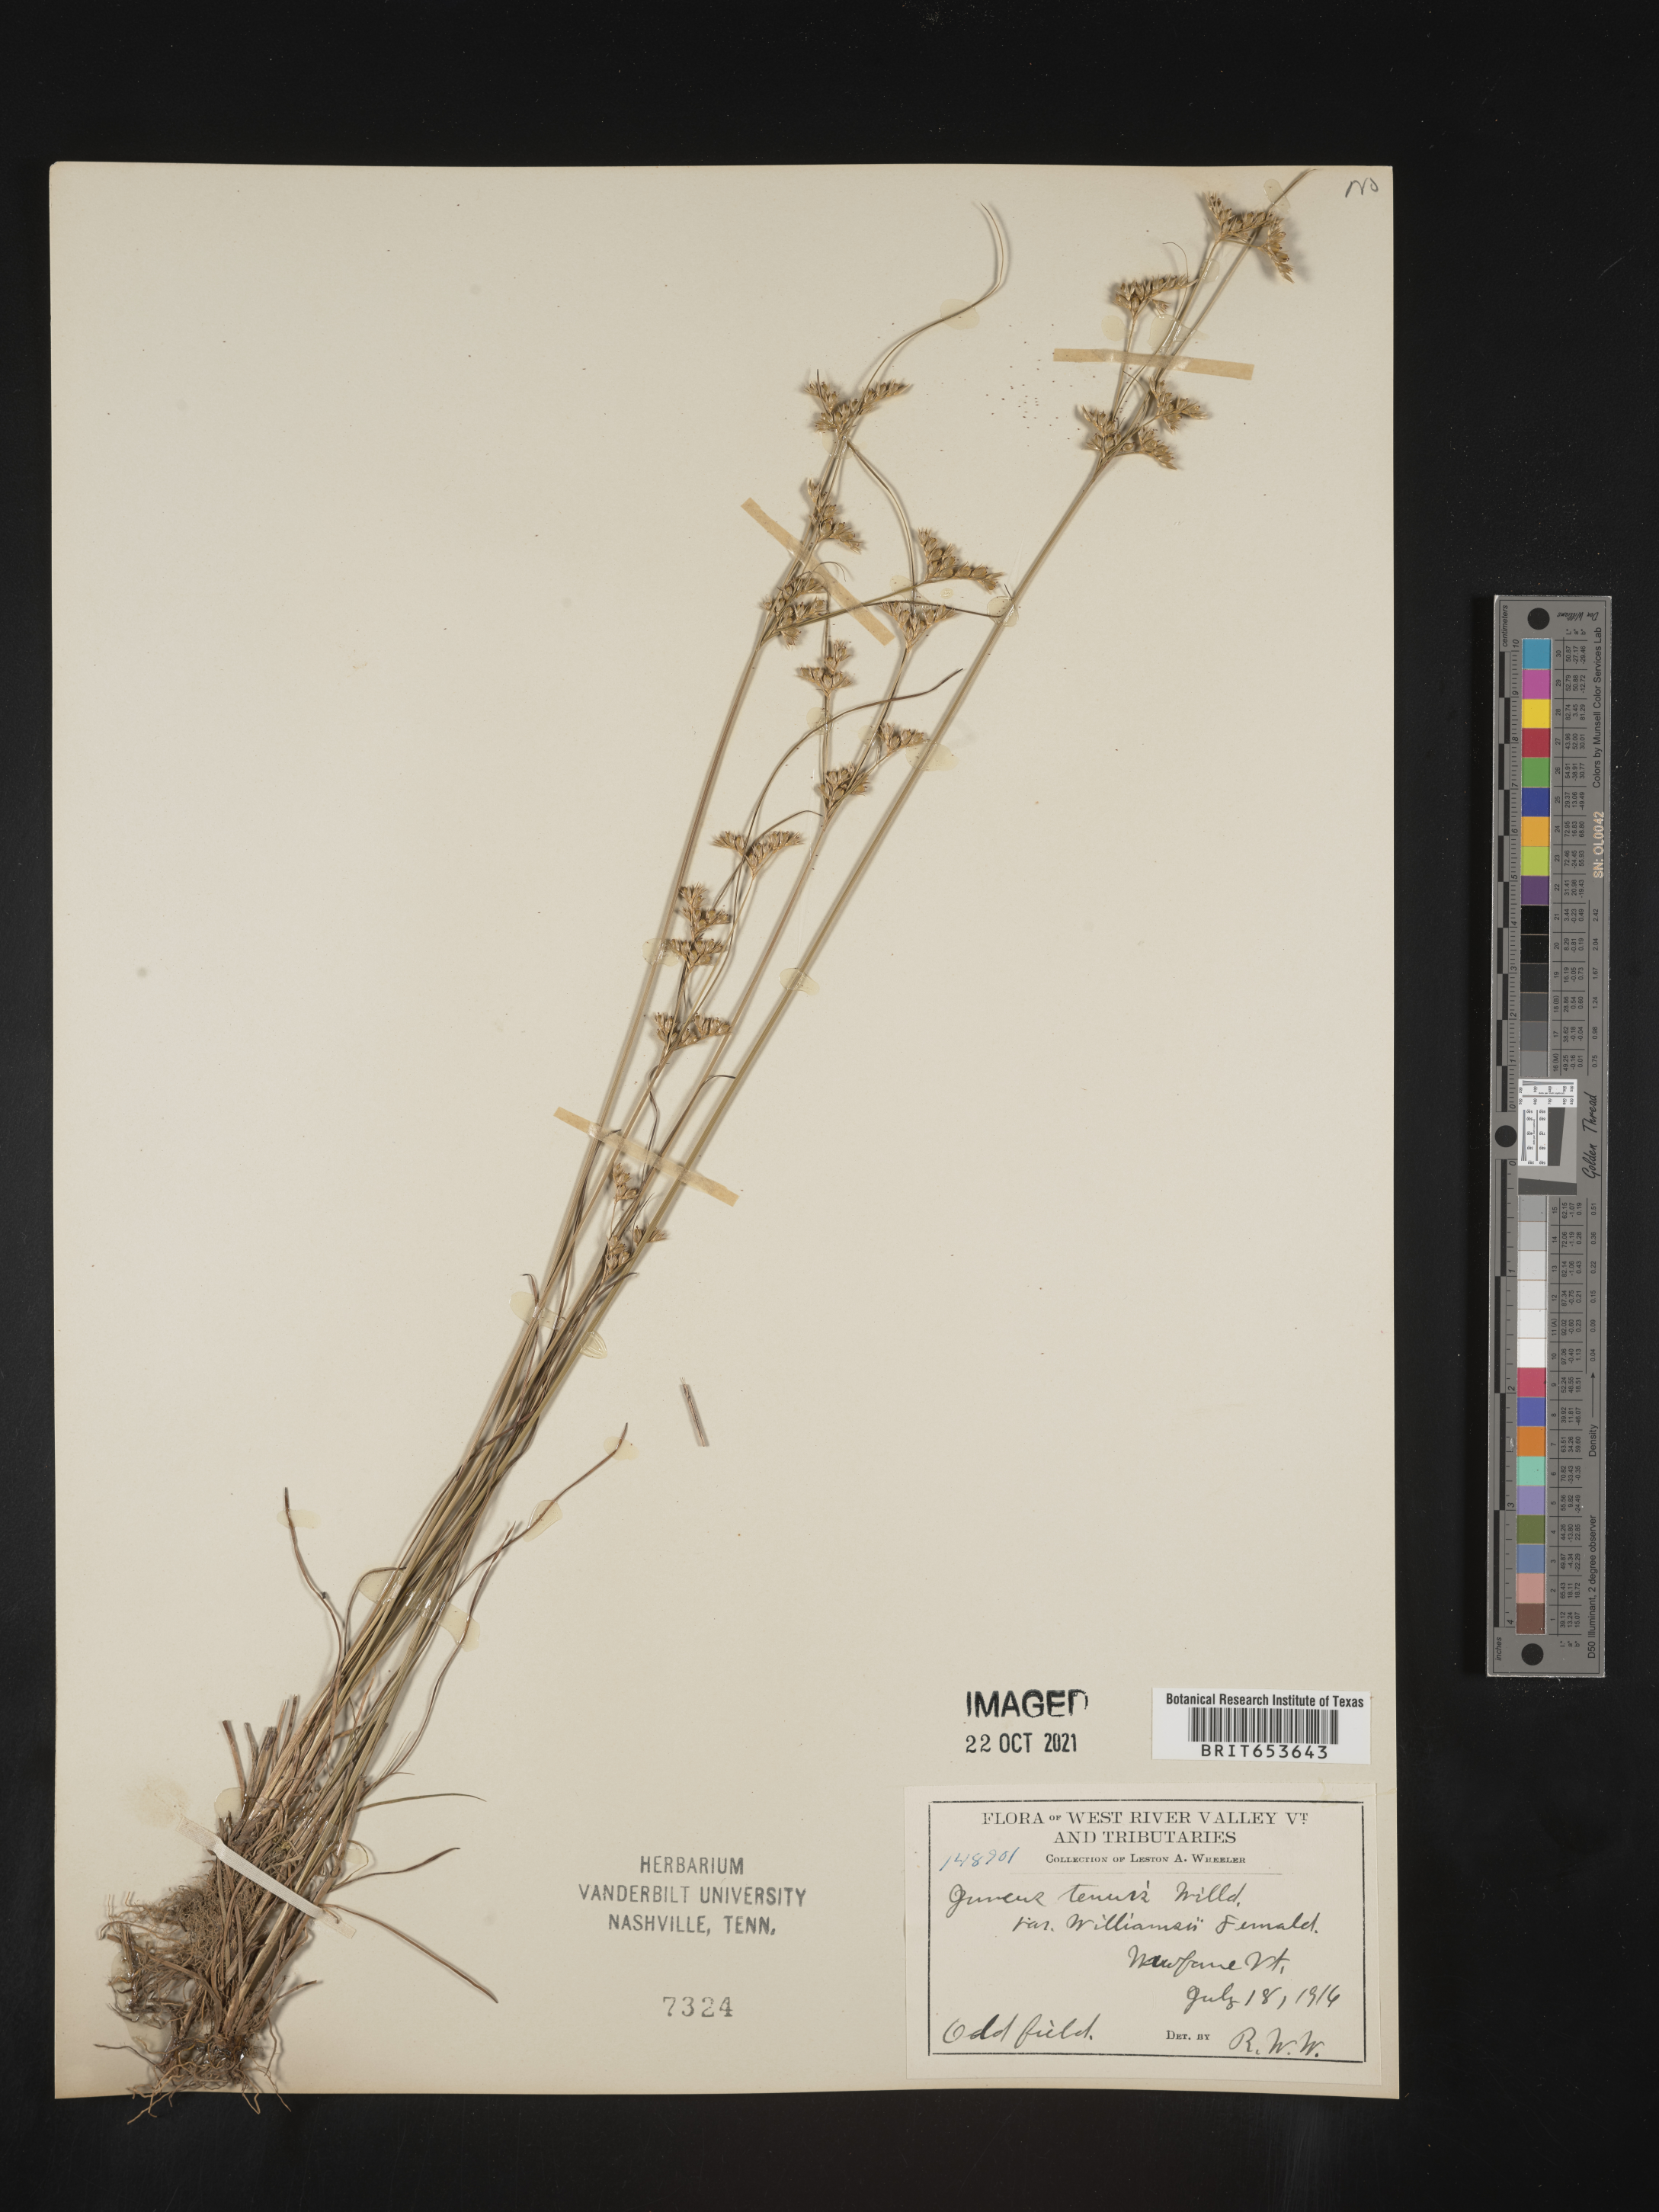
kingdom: Plantae
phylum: Tracheophyta
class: Liliopsida
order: Poales
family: Juncaceae
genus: Juncus
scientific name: Juncus tenuis
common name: Slender rush
